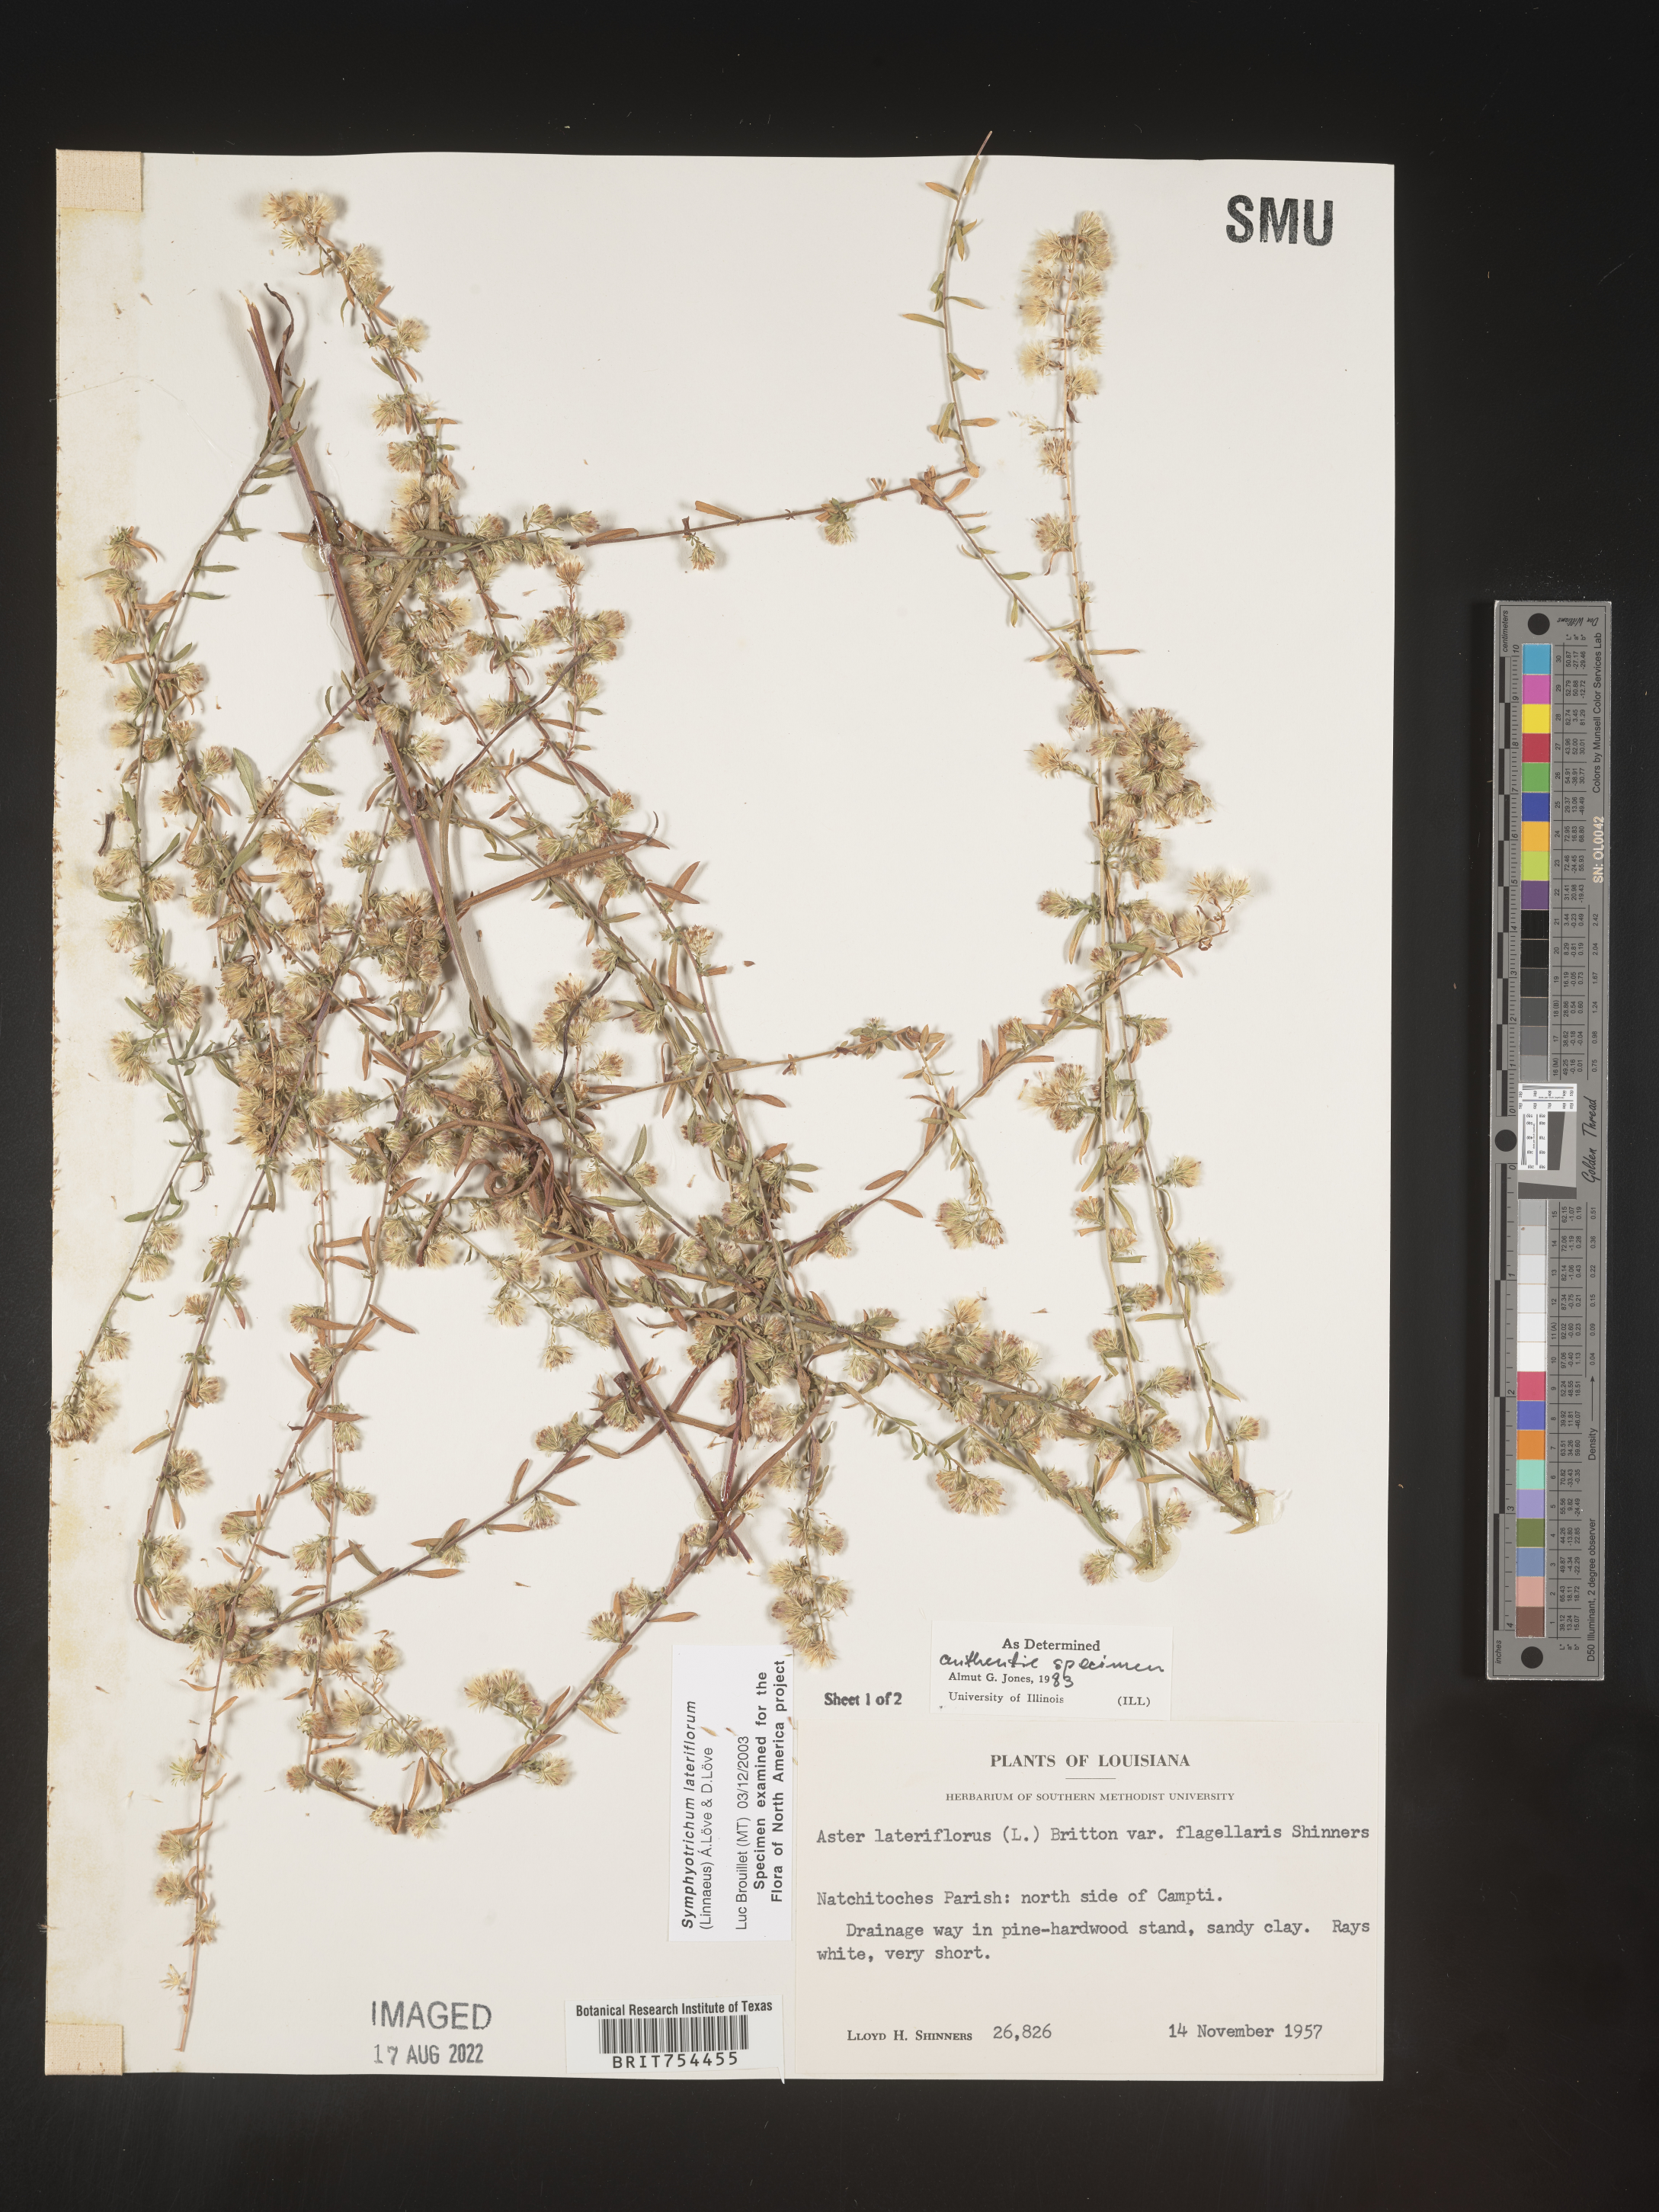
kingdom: Plantae
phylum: Tracheophyta
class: Magnoliopsida
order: Asterales
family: Asteraceae
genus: Symphyotrichum
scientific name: Symphyotrichum lateriflorum
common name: Calico aster
